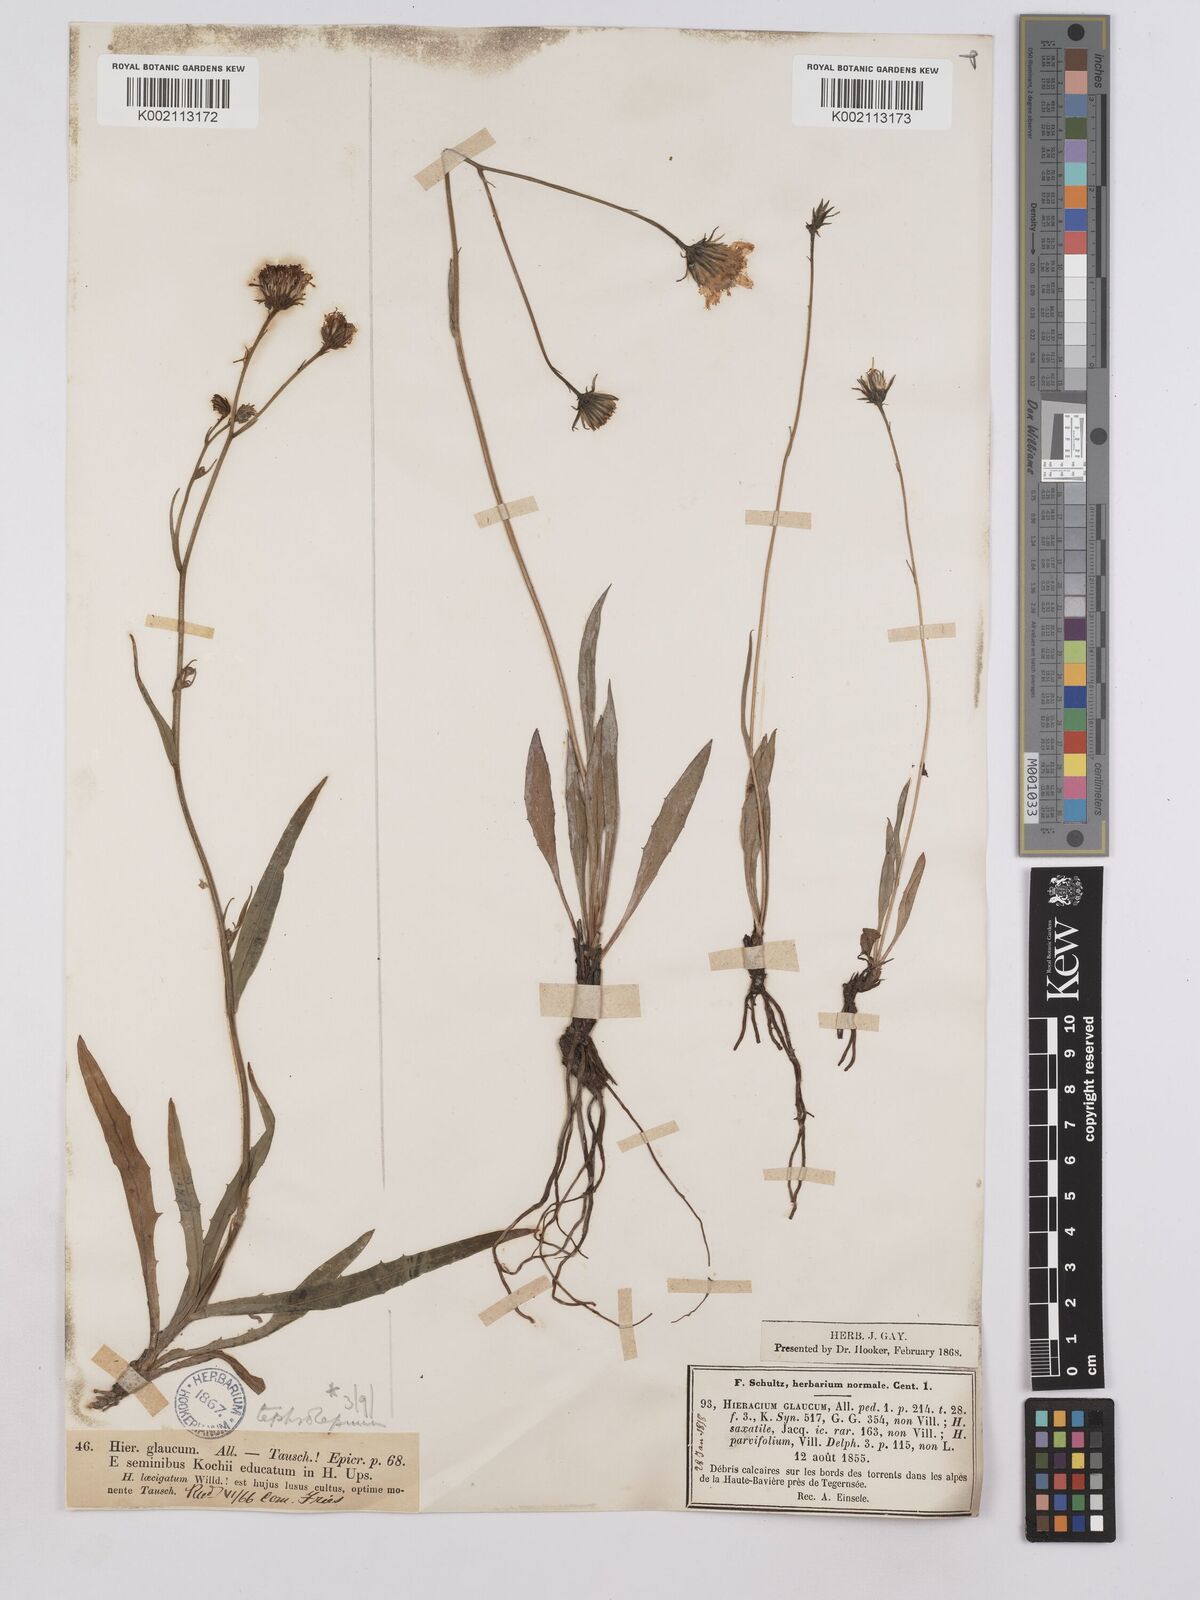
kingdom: Plantae
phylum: Tracheophyta
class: Magnoliopsida
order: Asterales
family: Asteraceae
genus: Hieracium
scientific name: Hieracium glaucum
